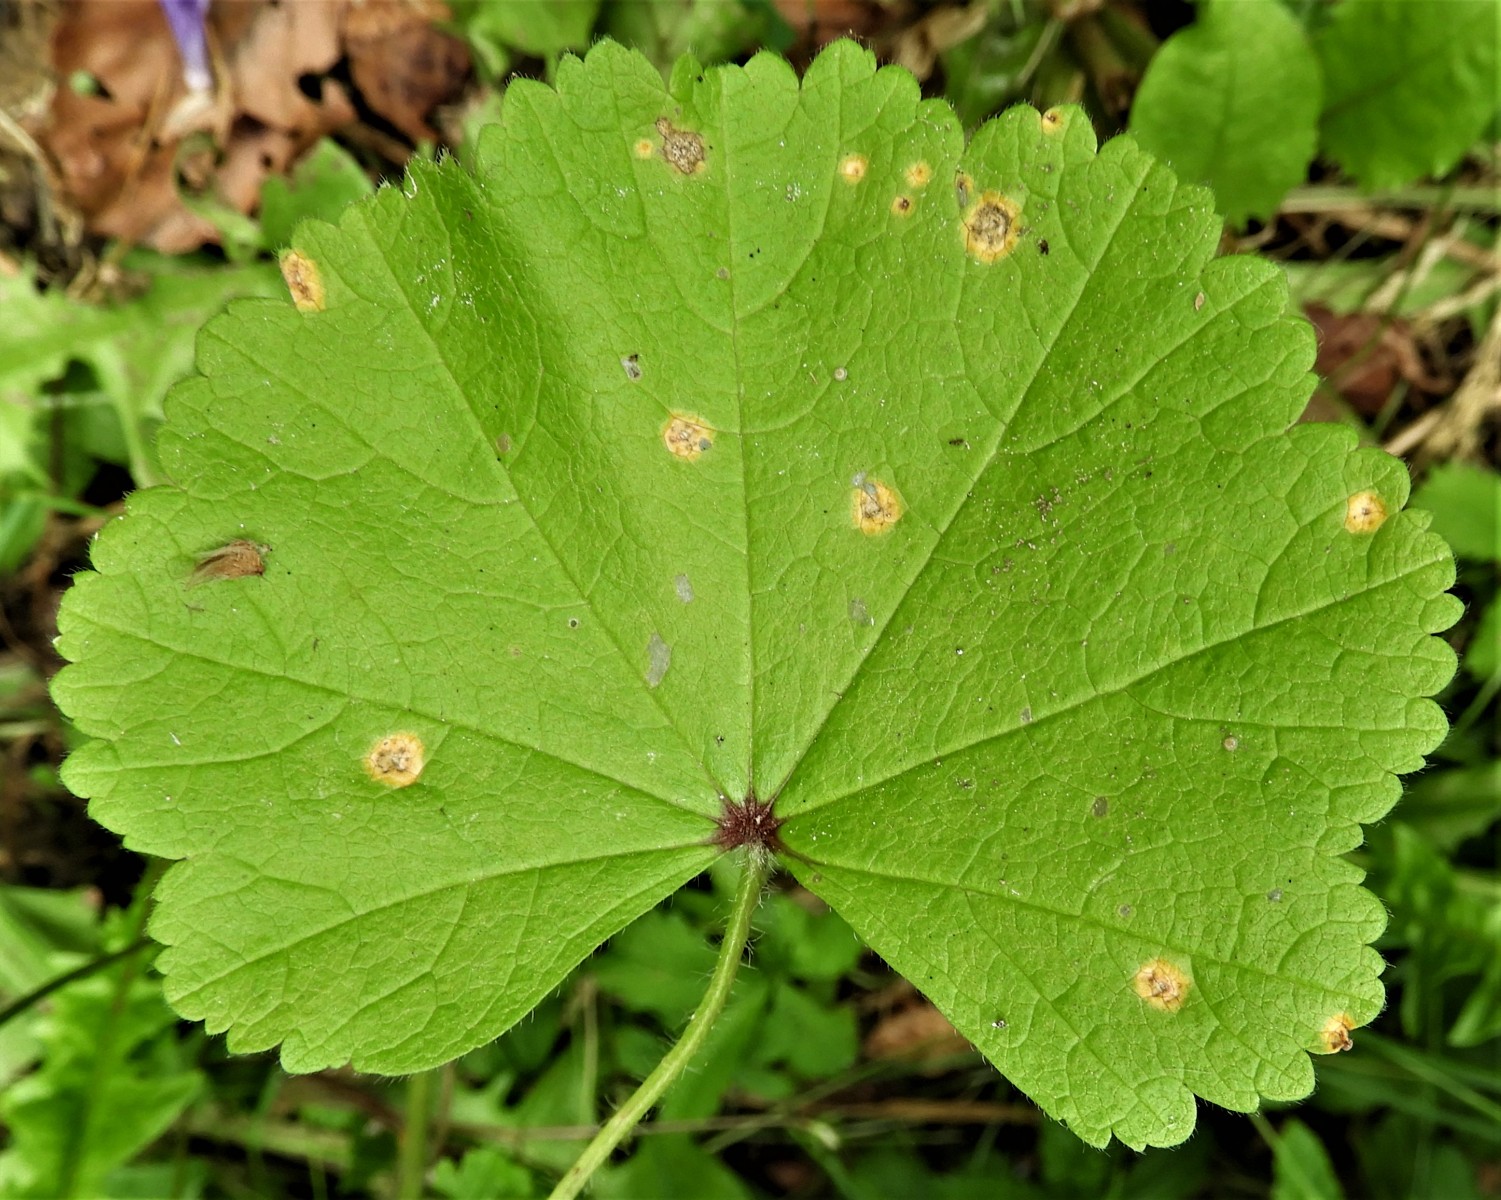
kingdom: Fungi
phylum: Basidiomycota
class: Pucciniomycetes
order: Pucciniales
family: Pucciniaceae
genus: Puccinia
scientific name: Puccinia malvacearum
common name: stokrose-tvecellerust
